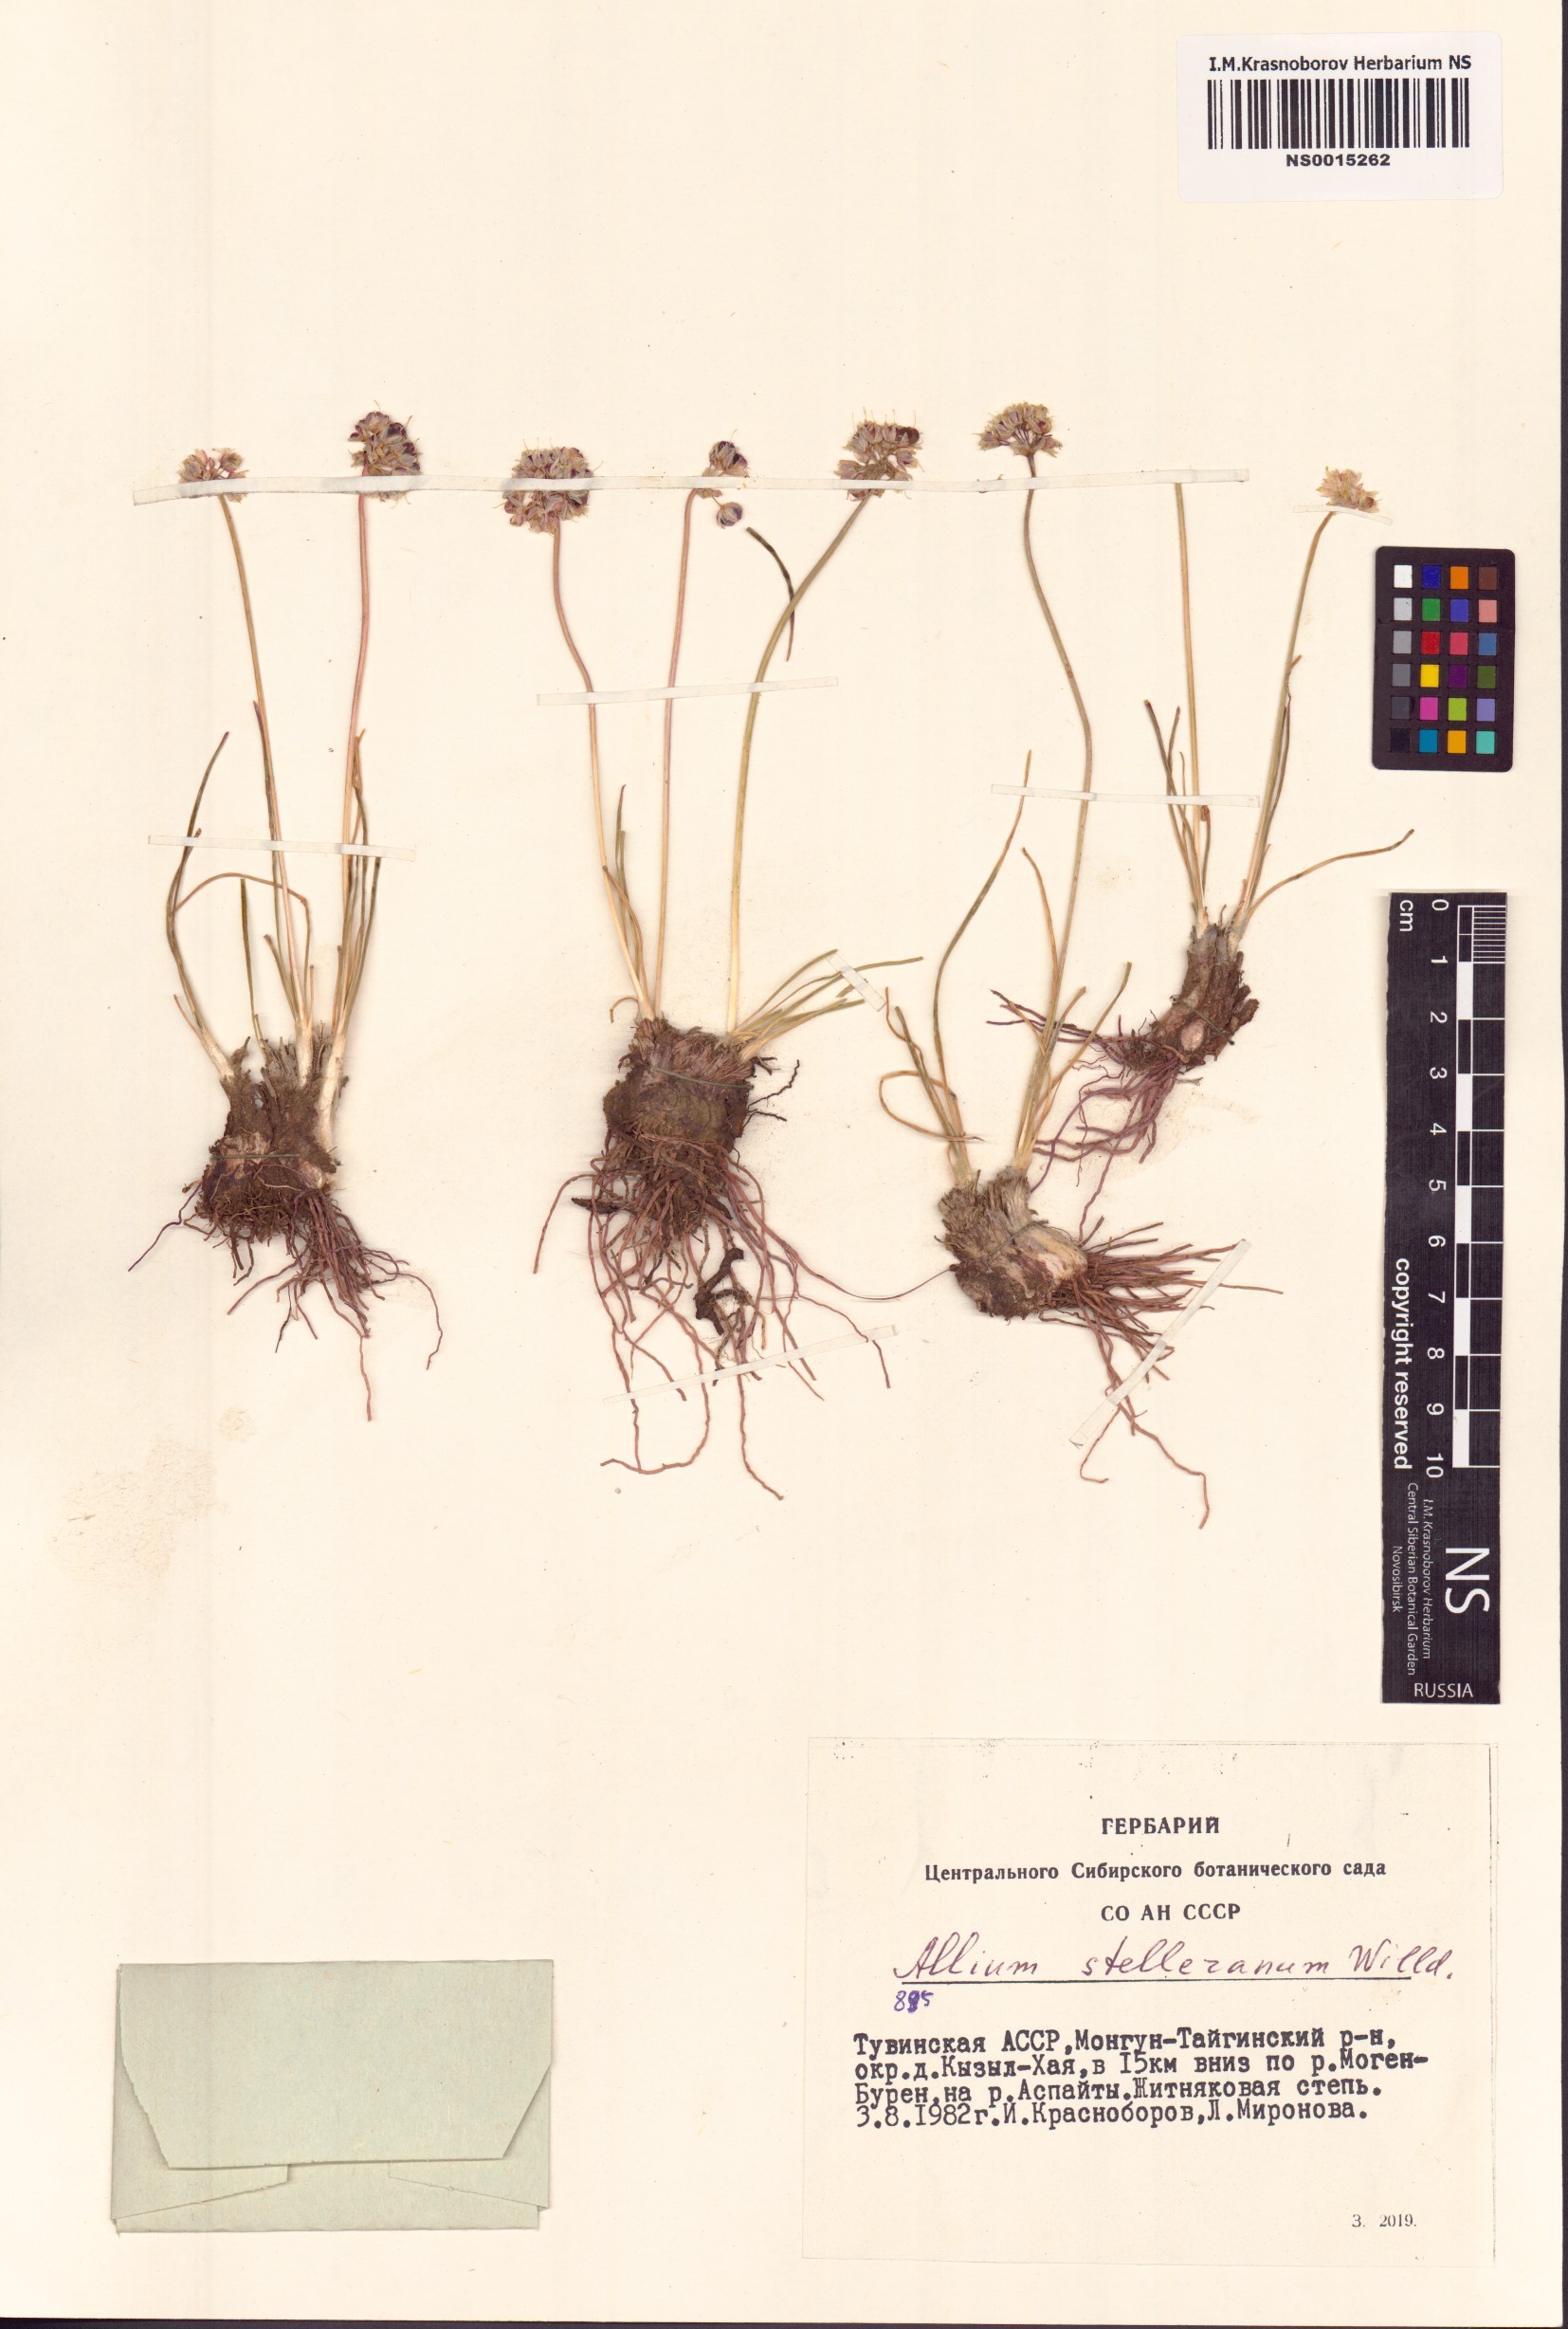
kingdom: Plantae
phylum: Tracheophyta
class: Liliopsida
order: Asparagales
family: Amaryllidaceae
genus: Allium
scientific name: Allium stellerianum
